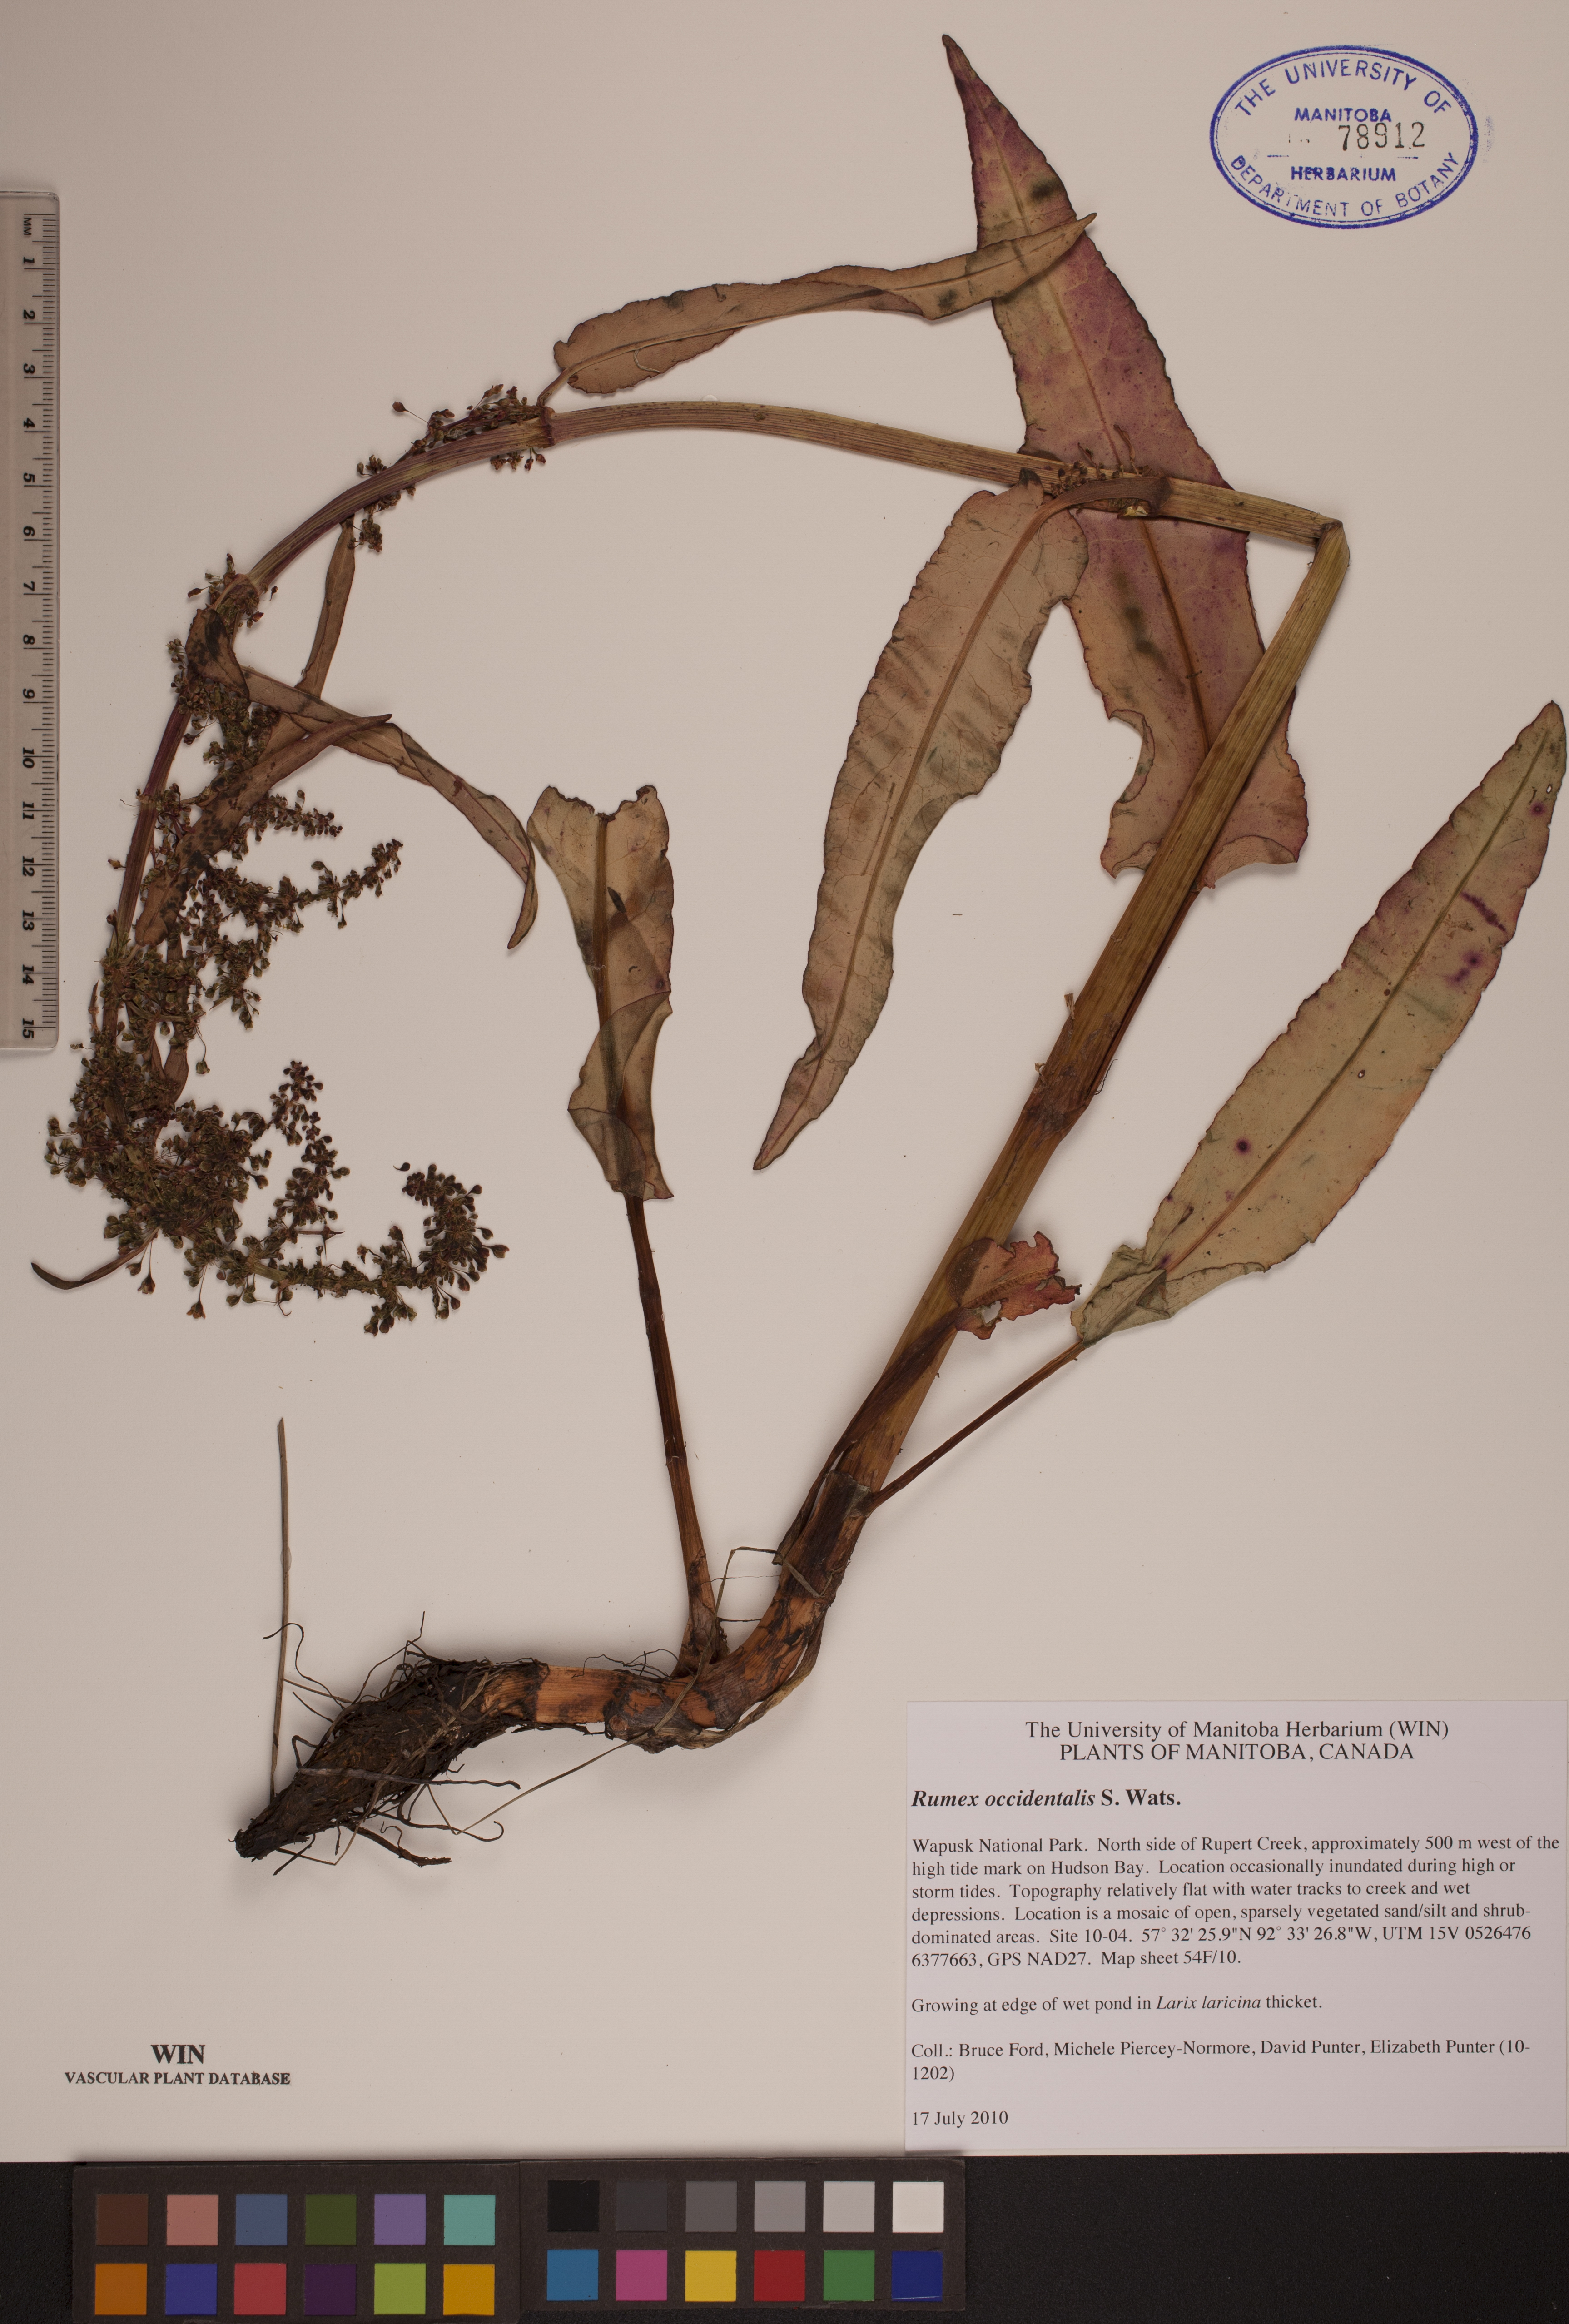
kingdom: Plantae
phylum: Tracheophyta
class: Magnoliopsida
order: Caryophyllales
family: Polygonaceae
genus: Rumex
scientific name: Rumex occidentalis
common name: Western dock
